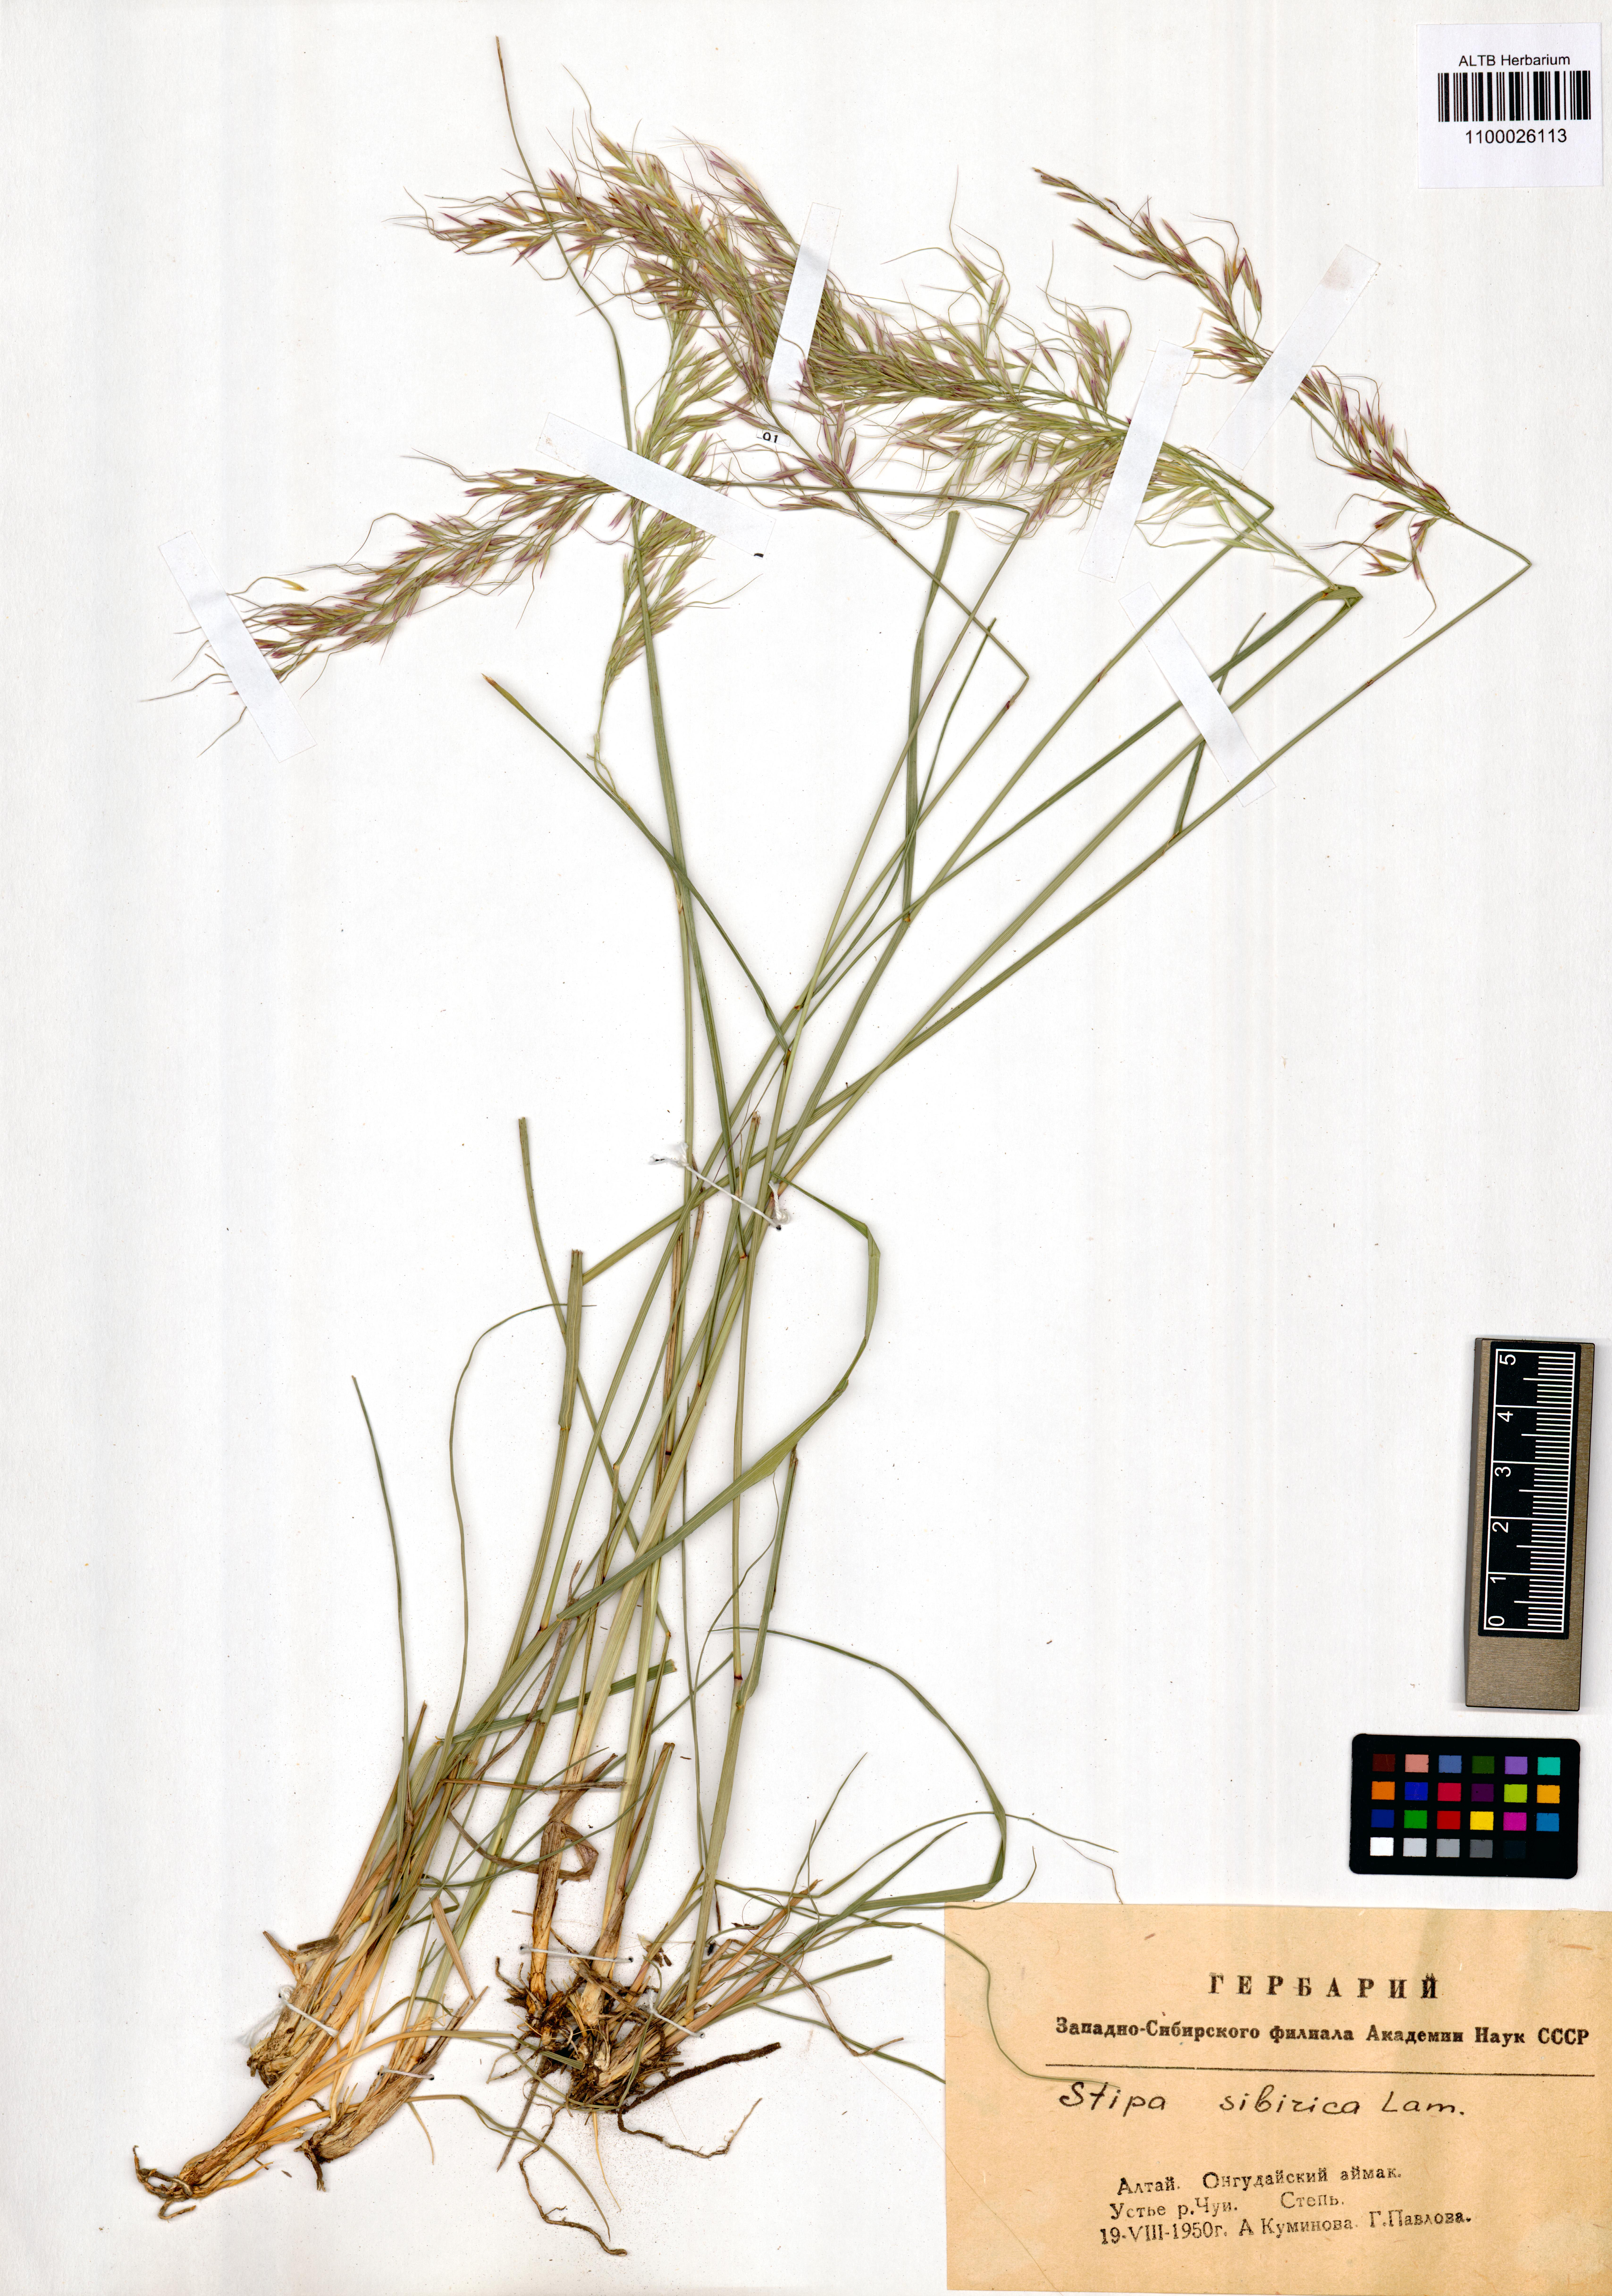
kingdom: Plantae
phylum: Tracheophyta
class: Liliopsida
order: Poales
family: Poaceae
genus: Achnatherum
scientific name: Achnatherum sibiricum
